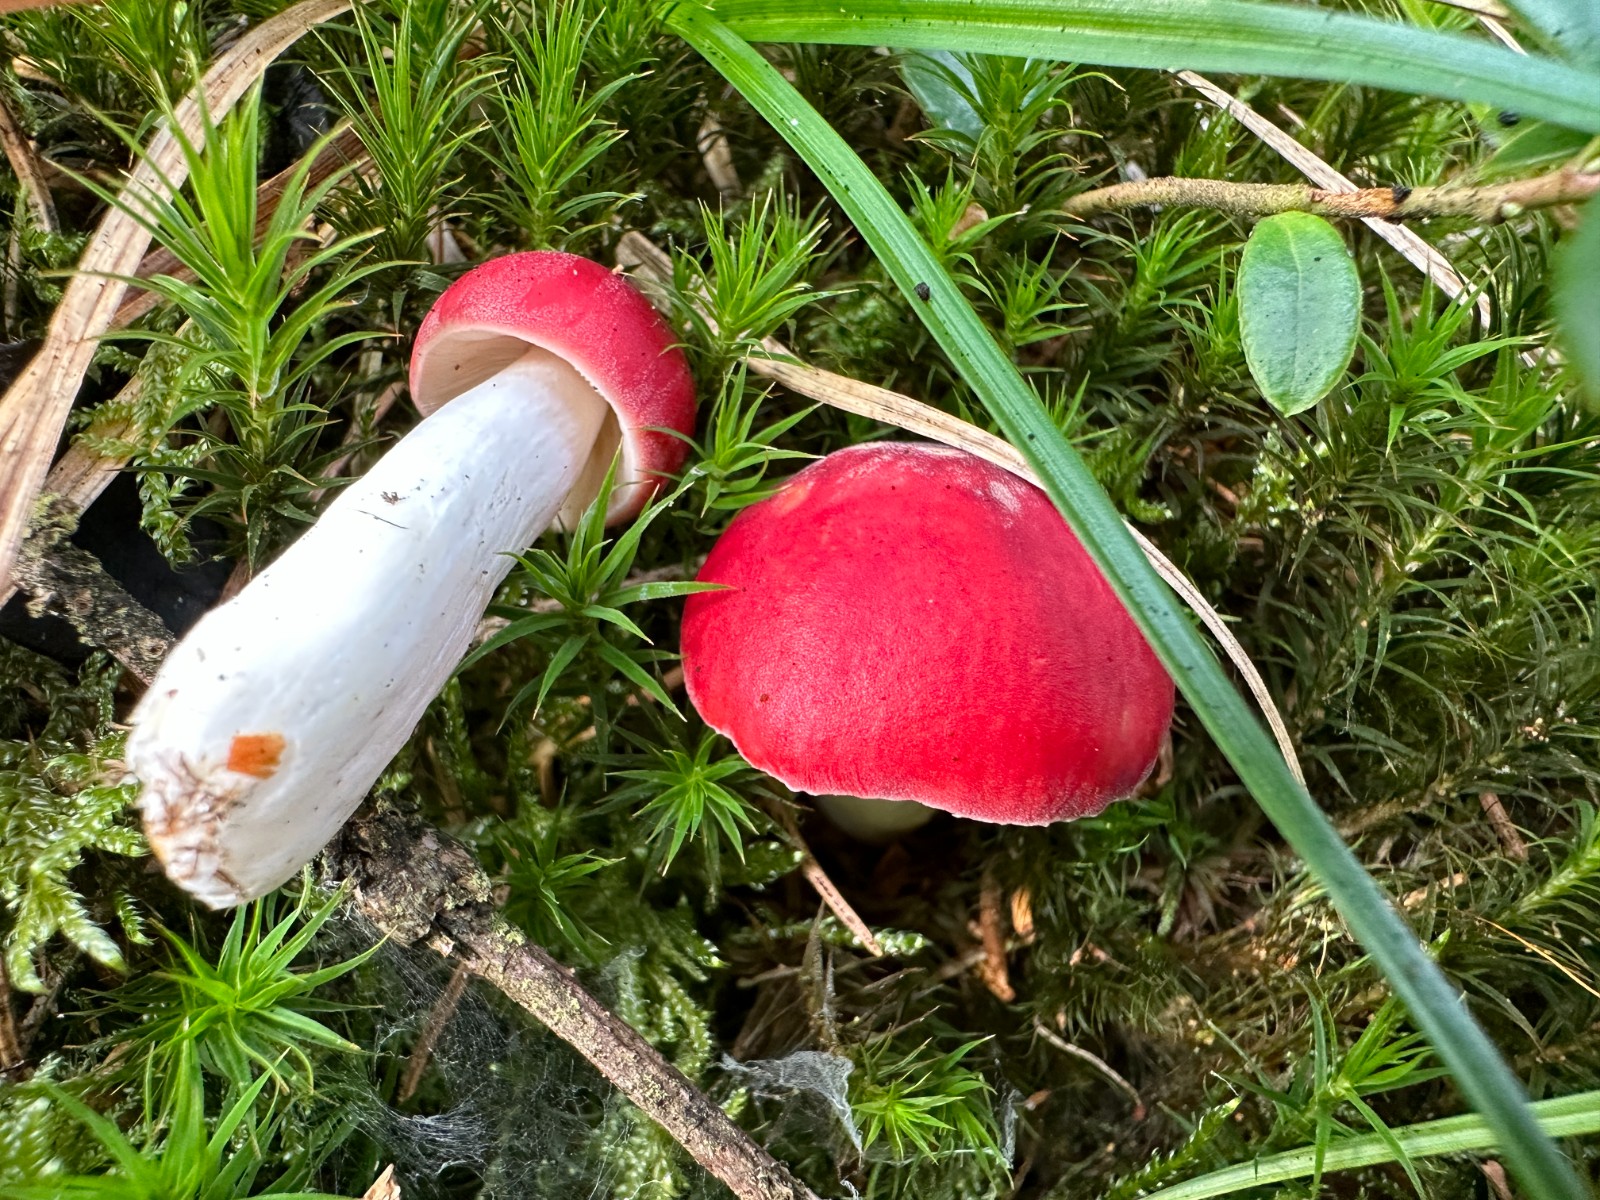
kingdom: Fungi
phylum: Basidiomycota
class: Agaricomycetes
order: Russulales
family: Russulaceae
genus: Russula
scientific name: Russula emetica
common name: stor gift-skørhat
